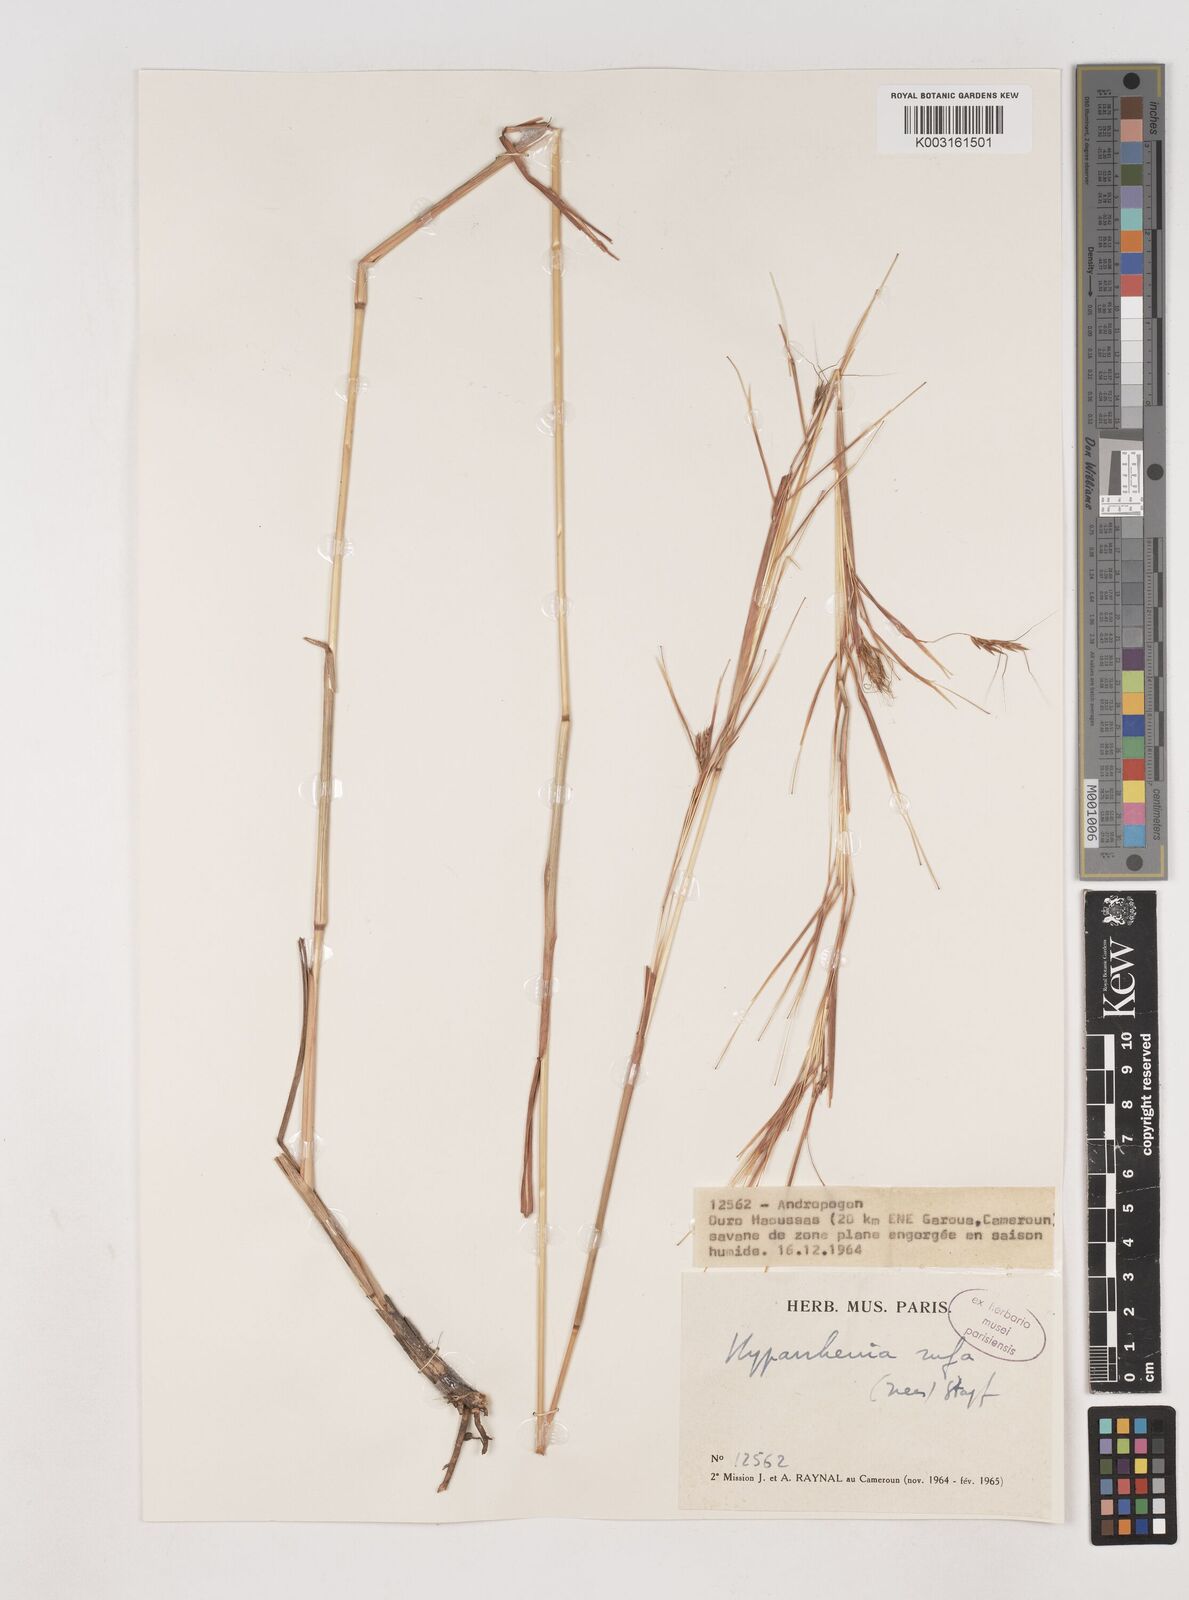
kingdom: Plantae
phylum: Tracheophyta
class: Liliopsida
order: Poales
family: Poaceae
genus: Hyparrhenia
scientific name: Hyparrhenia rufa
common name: Jaraguagrass
